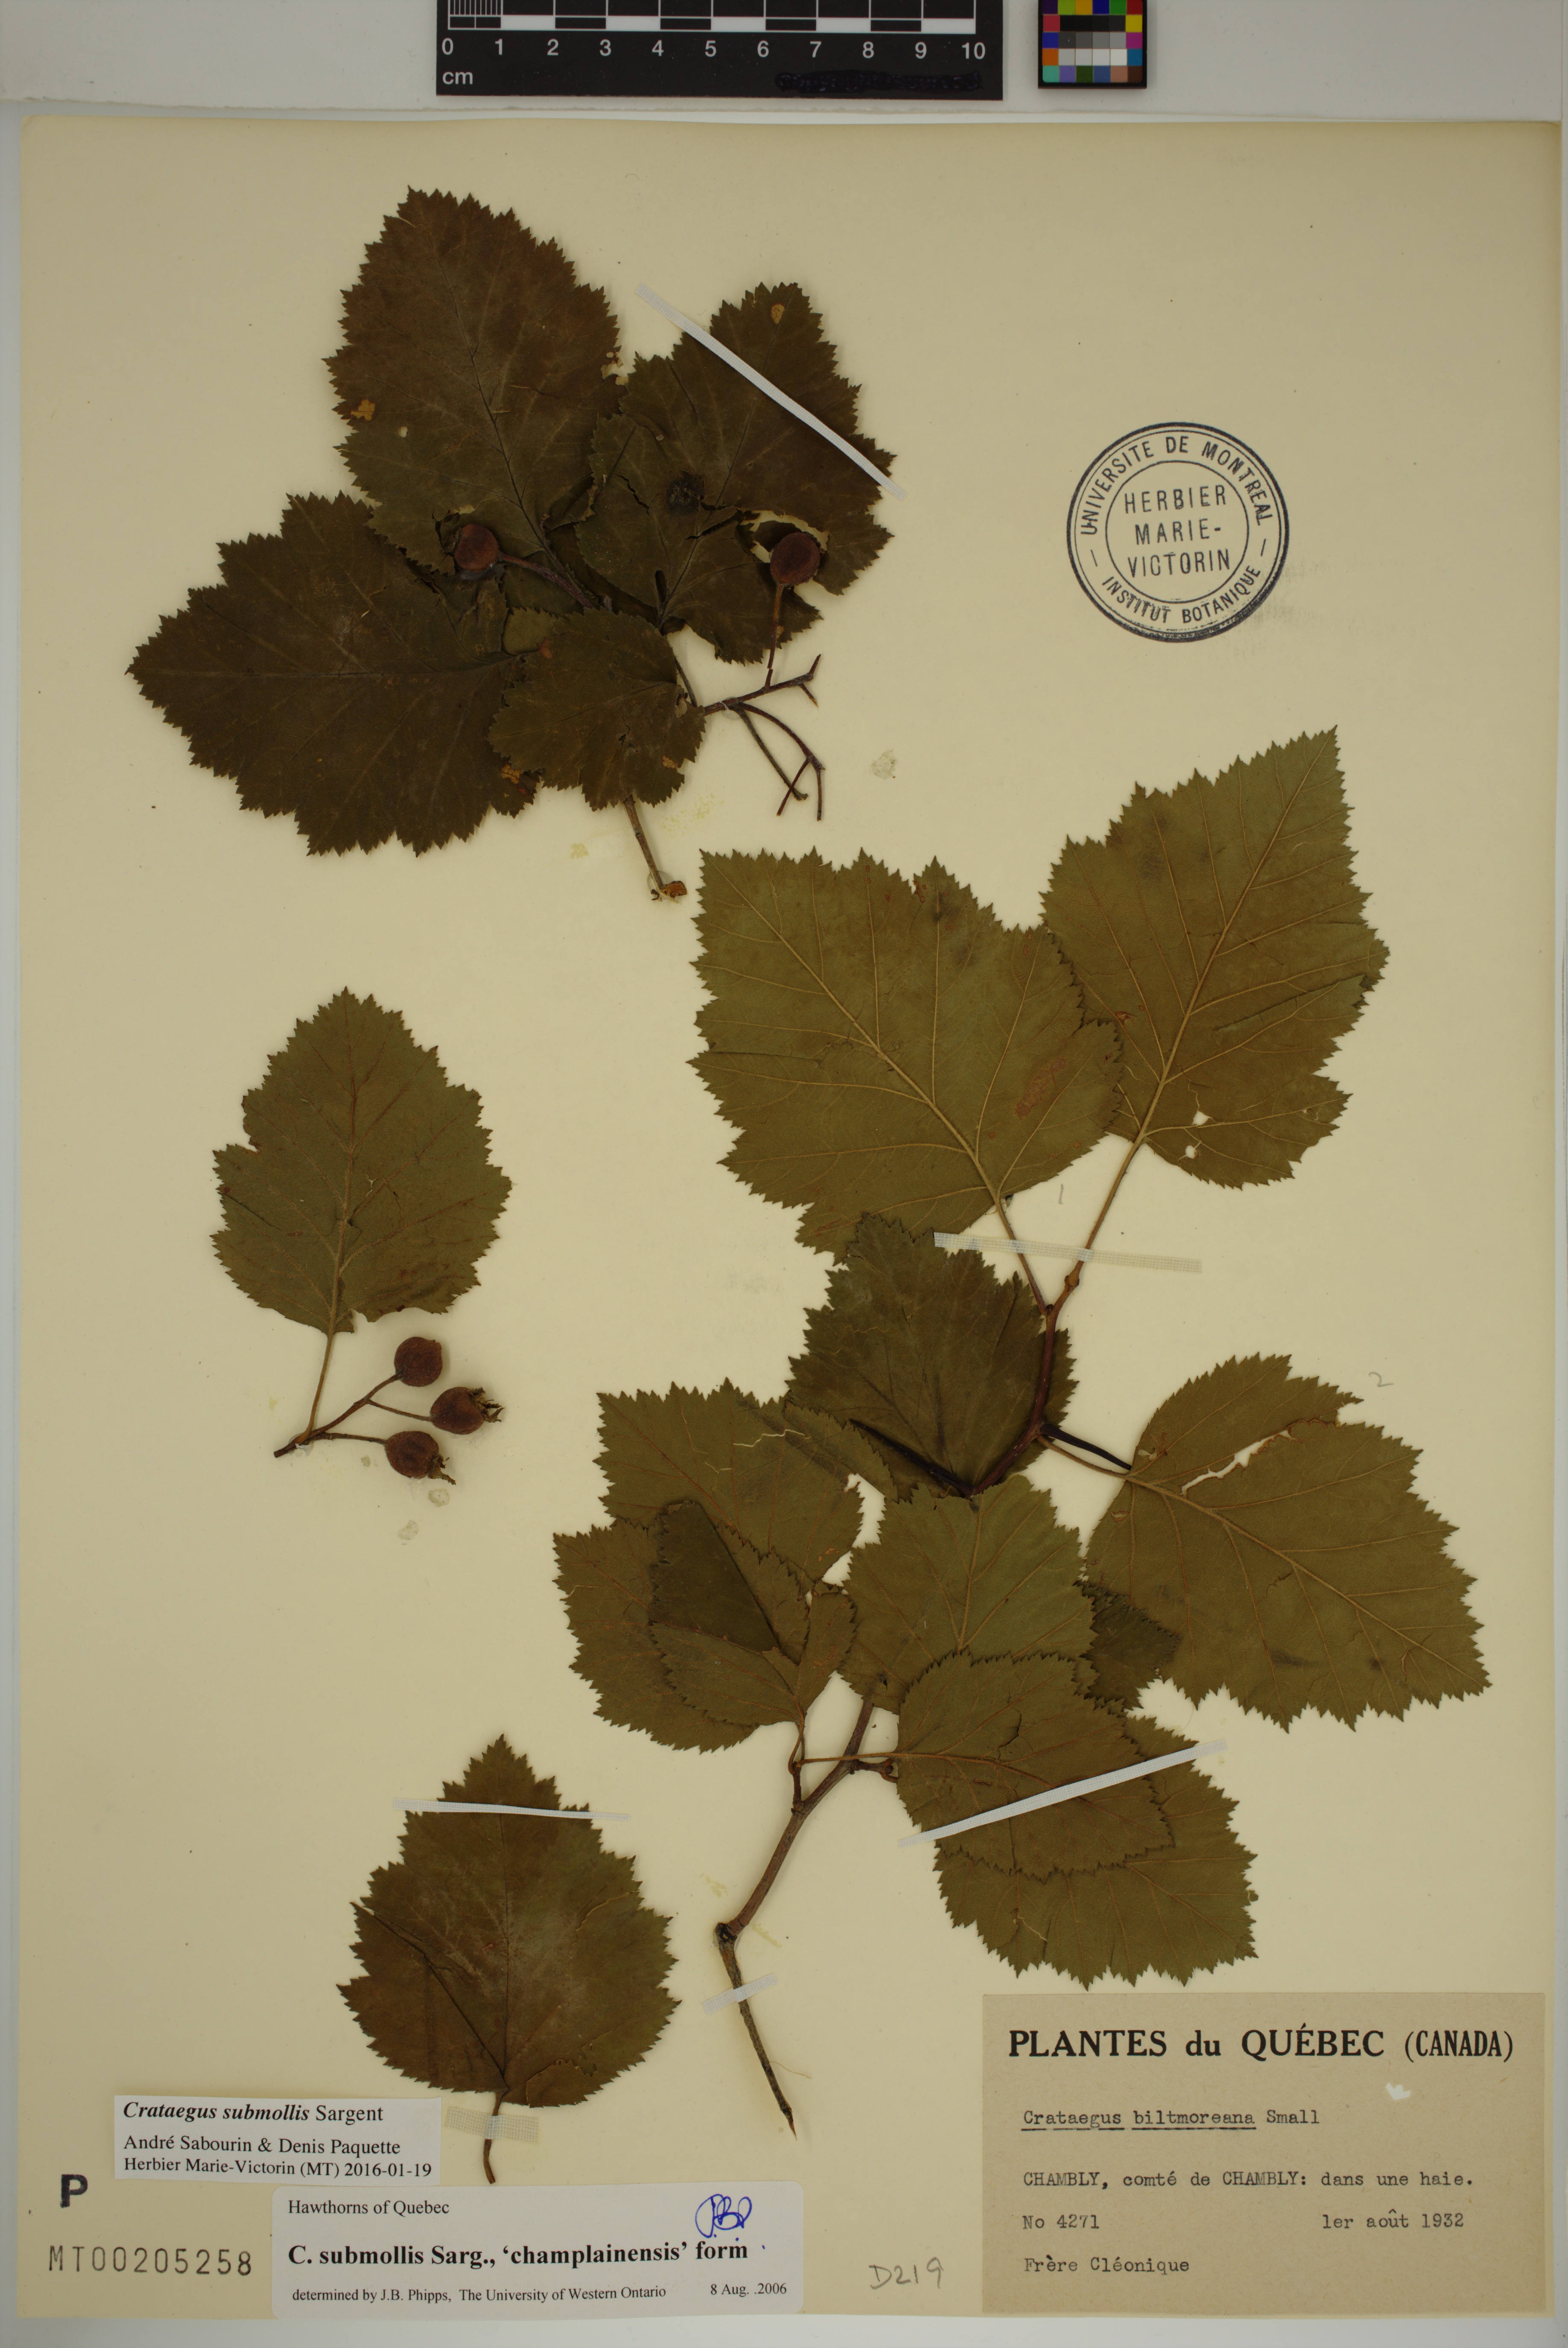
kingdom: Plantae
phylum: Tracheophyta
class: Magnoliopsida
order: Rosales
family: Rosaceae
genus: Crataegus
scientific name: Crataegus submollis
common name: Hairy cockspurthorn
